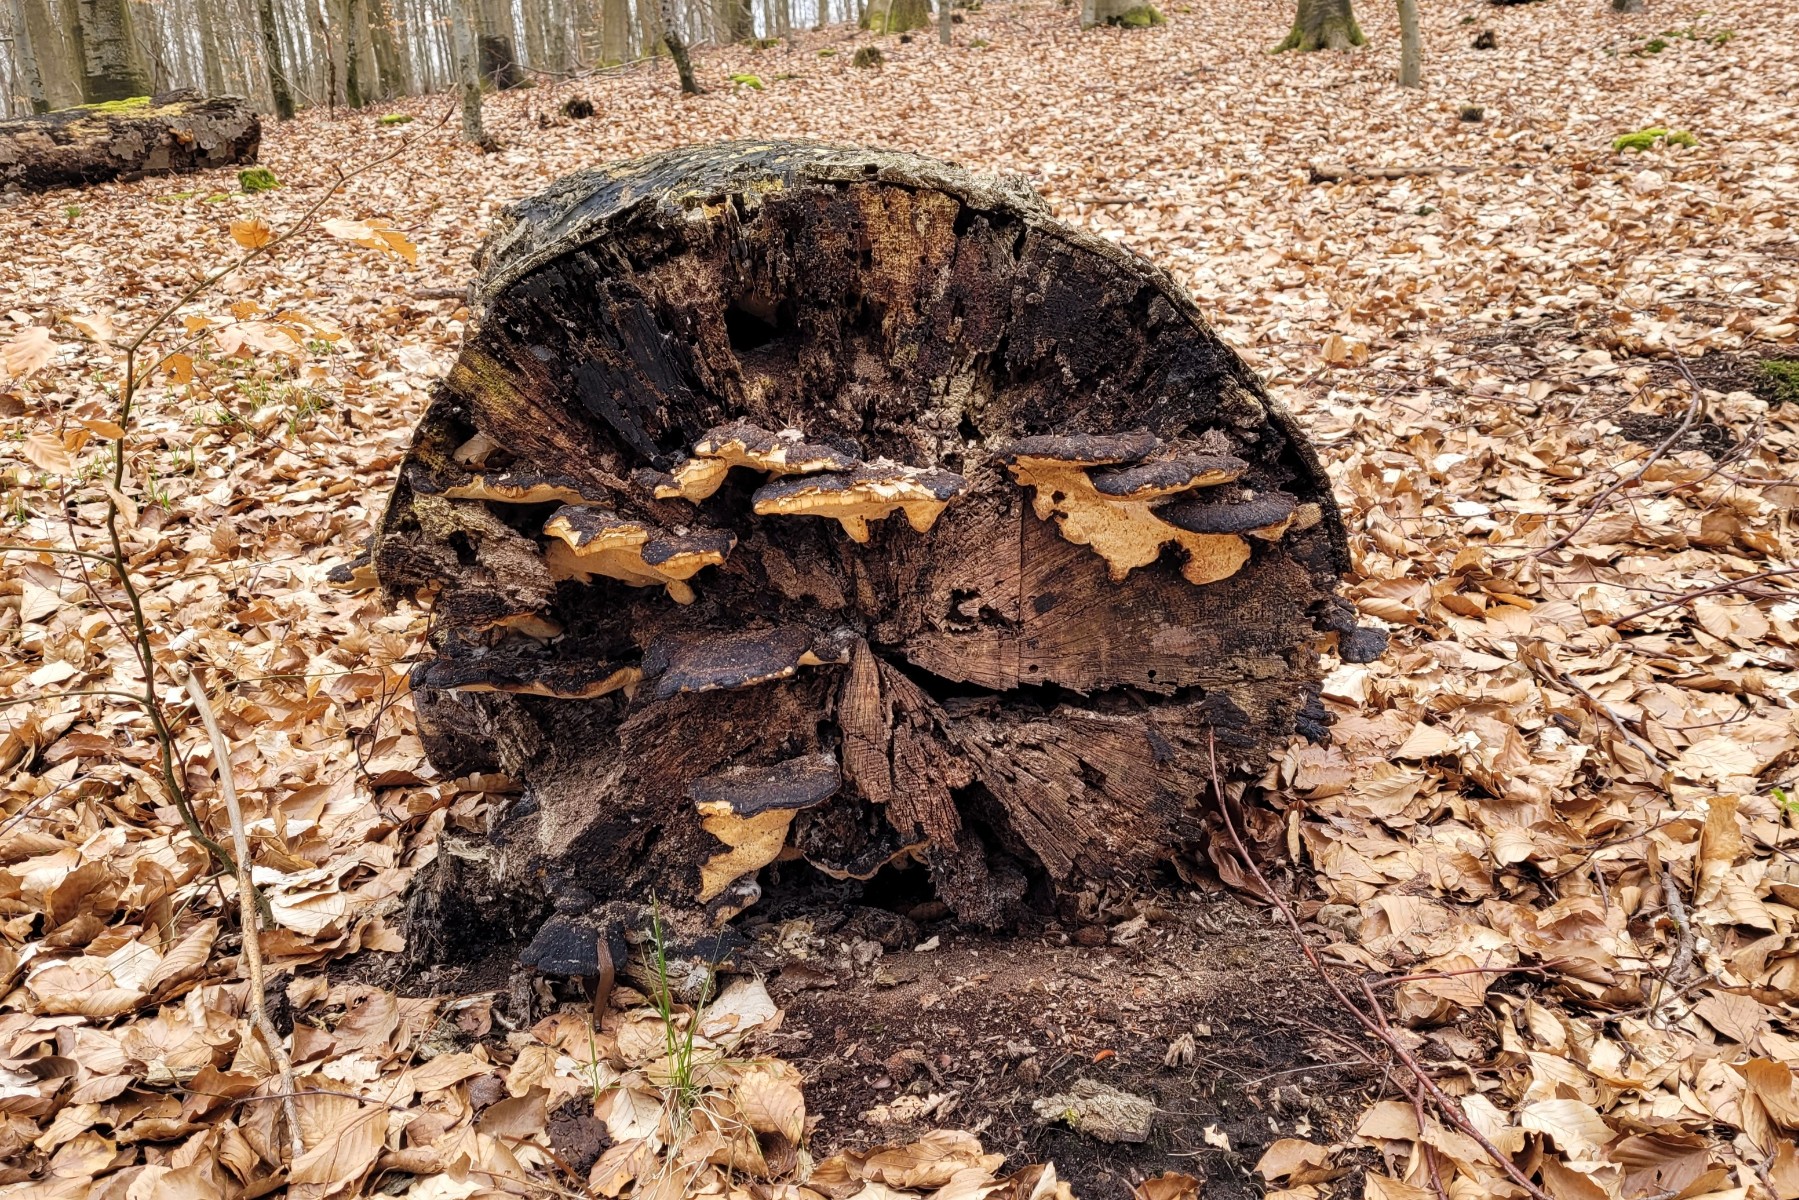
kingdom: Fungi
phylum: Basidiomycota
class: Agaricomycetes
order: Polyporales
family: Ischnodermataceae
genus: Ischnoderma
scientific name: Ischnoderma resinosum
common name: løv-tjæreporesvamp
